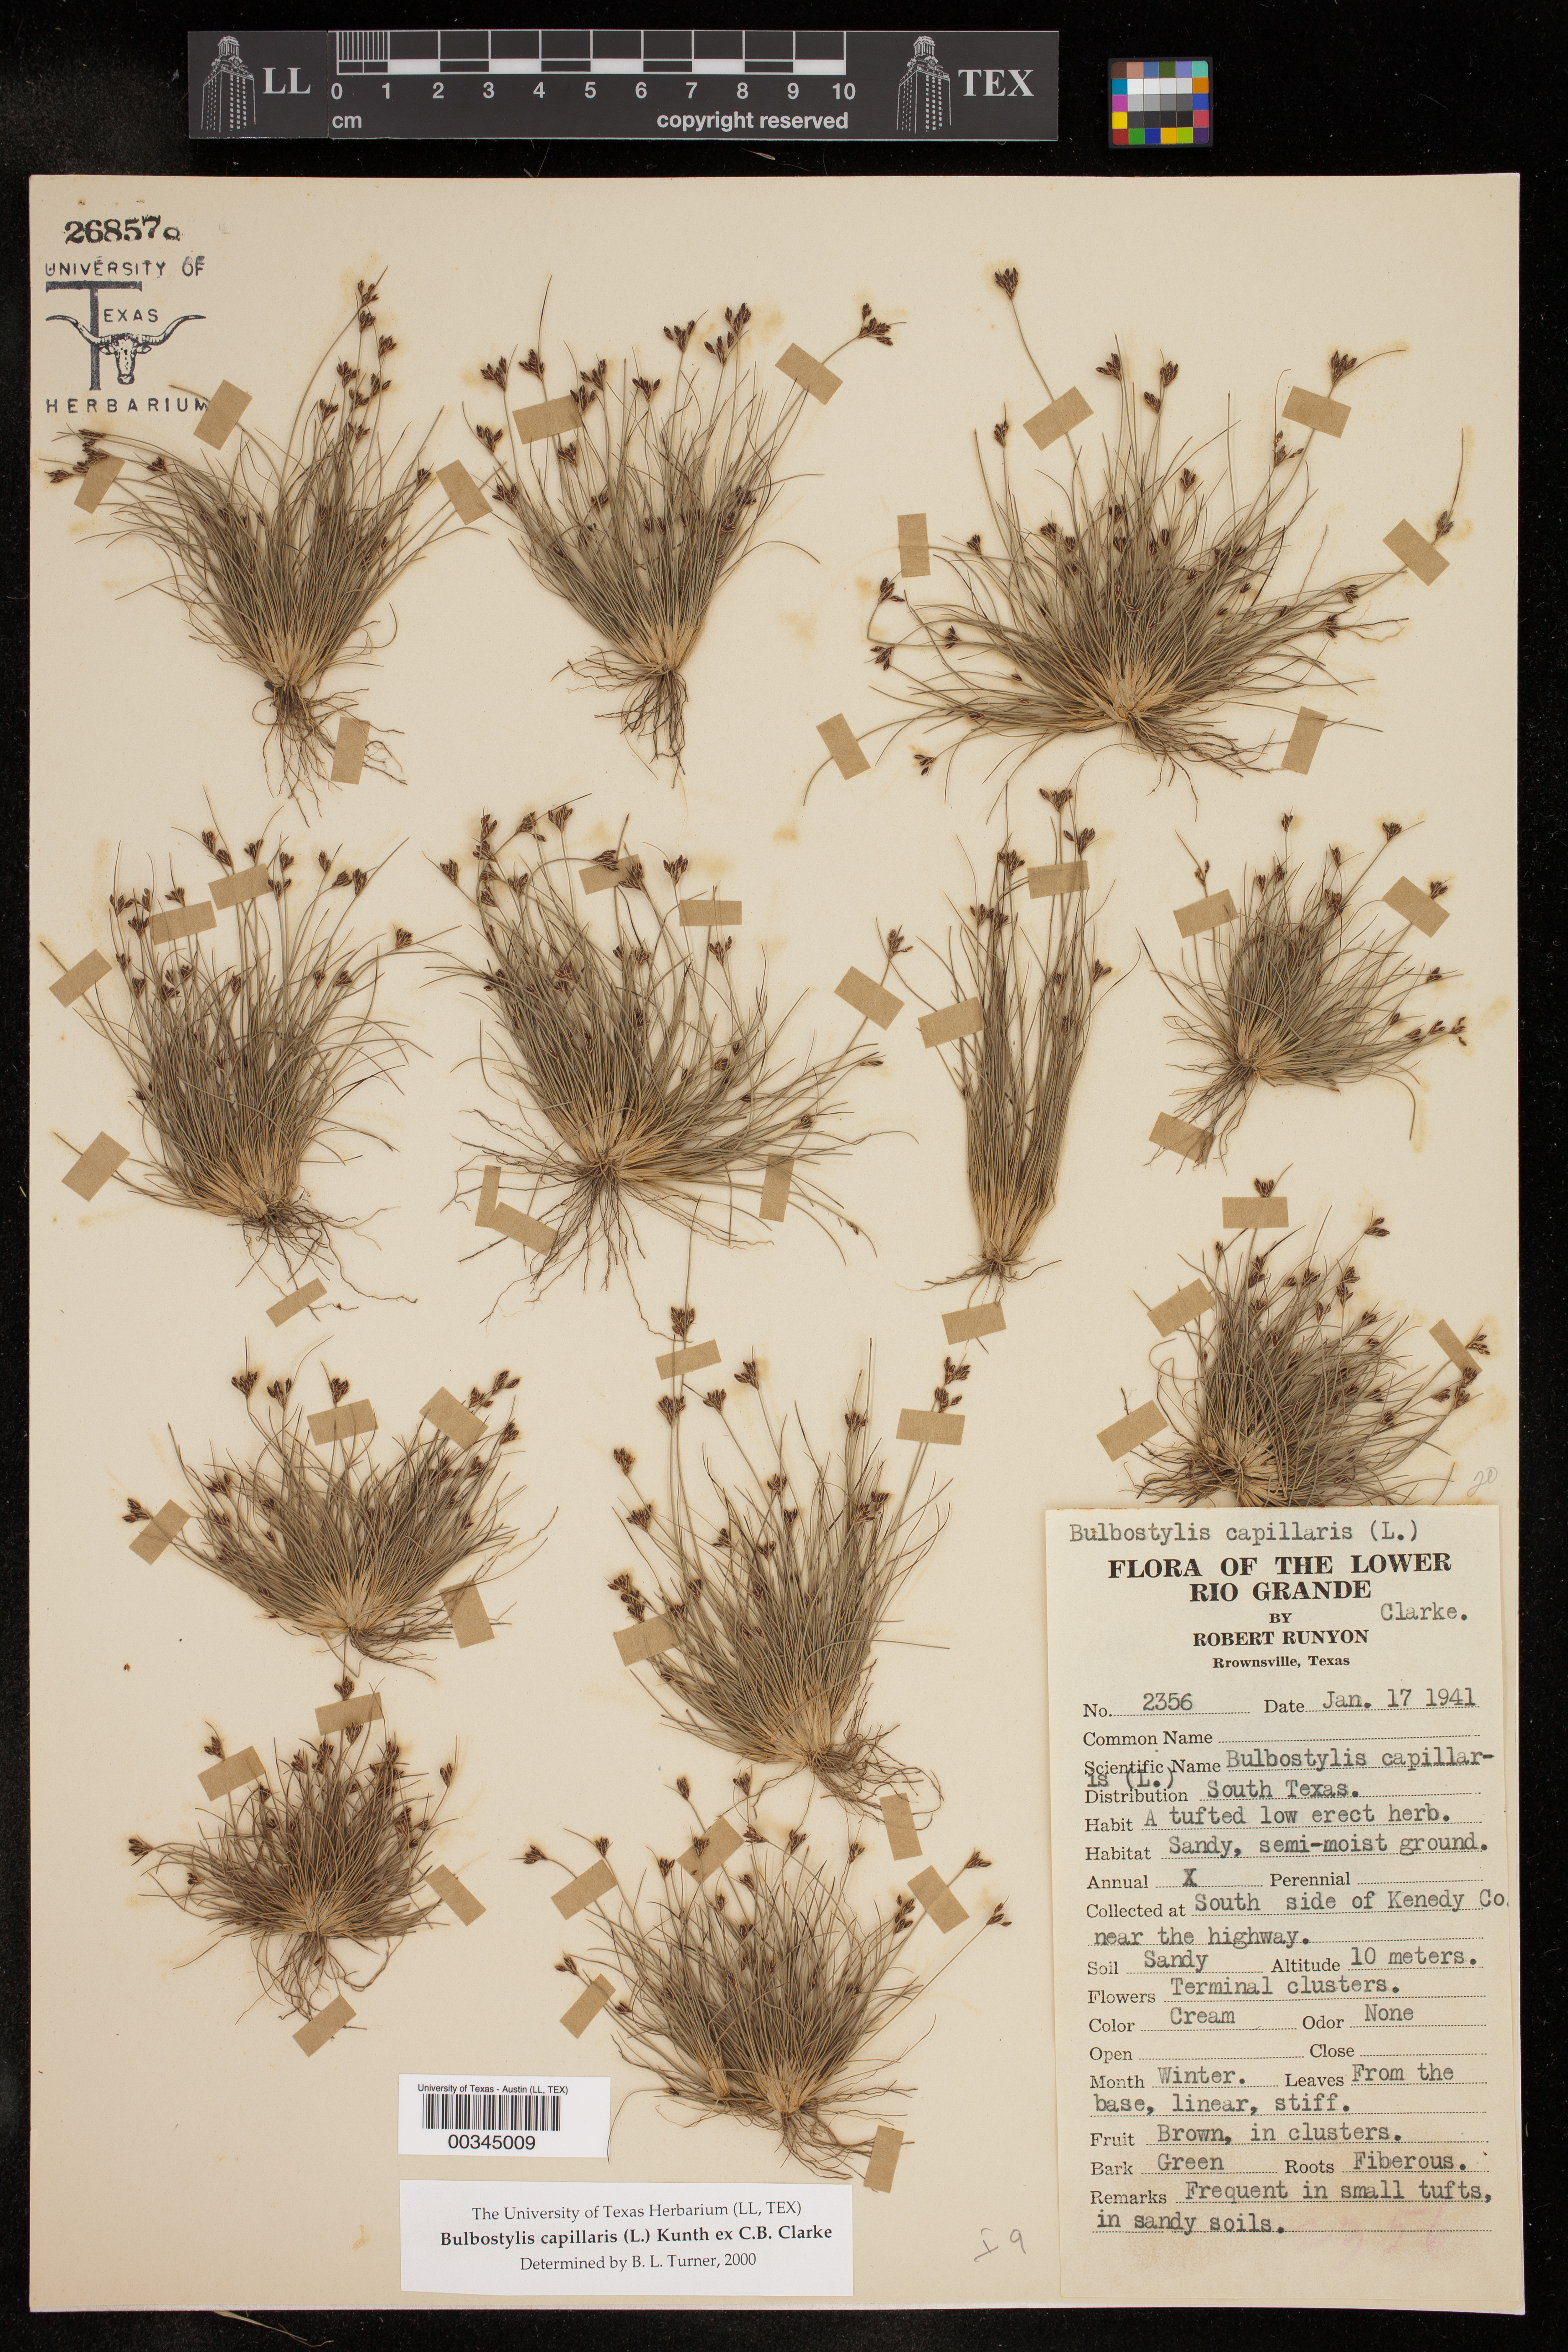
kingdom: Plantae
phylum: Tracheophyta
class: Liliopsida
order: Poales
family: Cyperaceae
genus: Bulbostylis
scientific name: Bulbostylis capillaris
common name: Densetuft hairsedge
